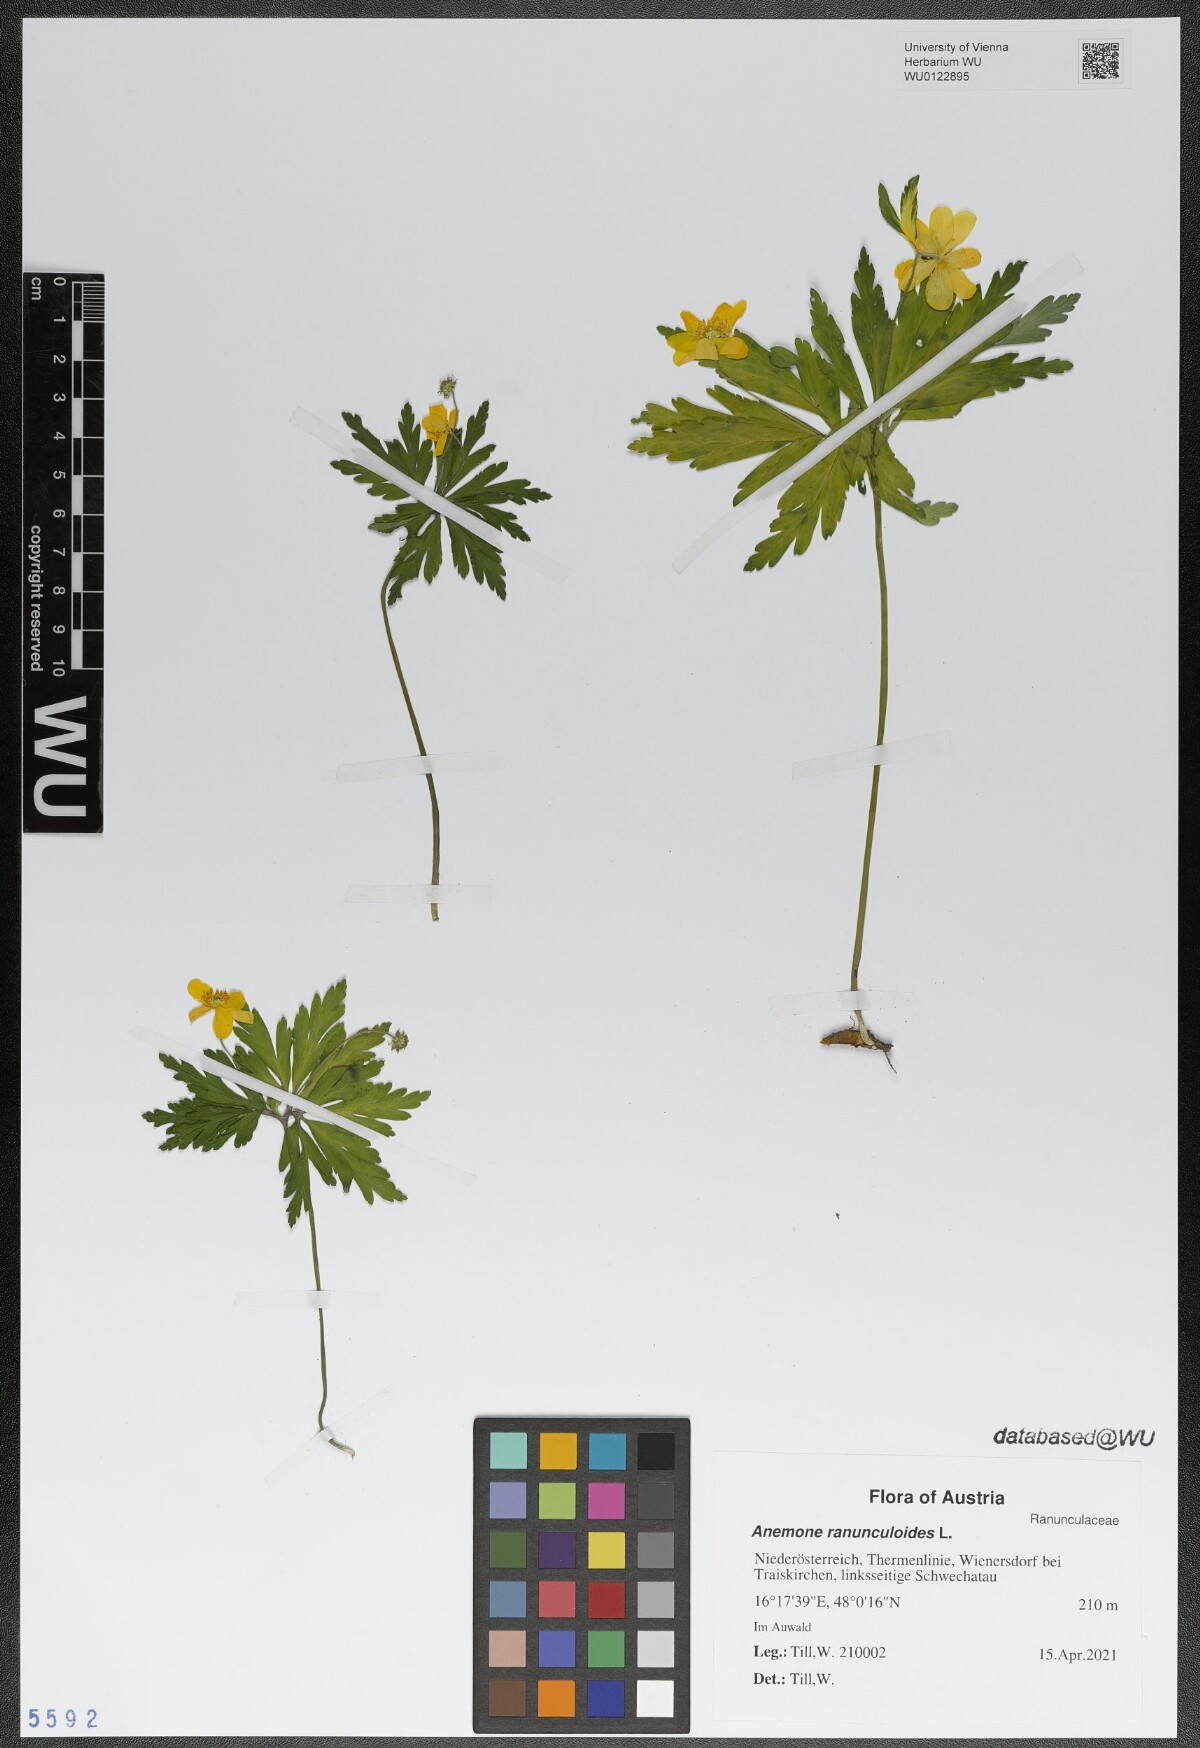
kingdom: Plantae
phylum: Tracheophyta
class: Magnoliopsida
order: Ranunculales
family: Ranunculaceae
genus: Anemone
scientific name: Anemone ranunculoides
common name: Yellow anemone
